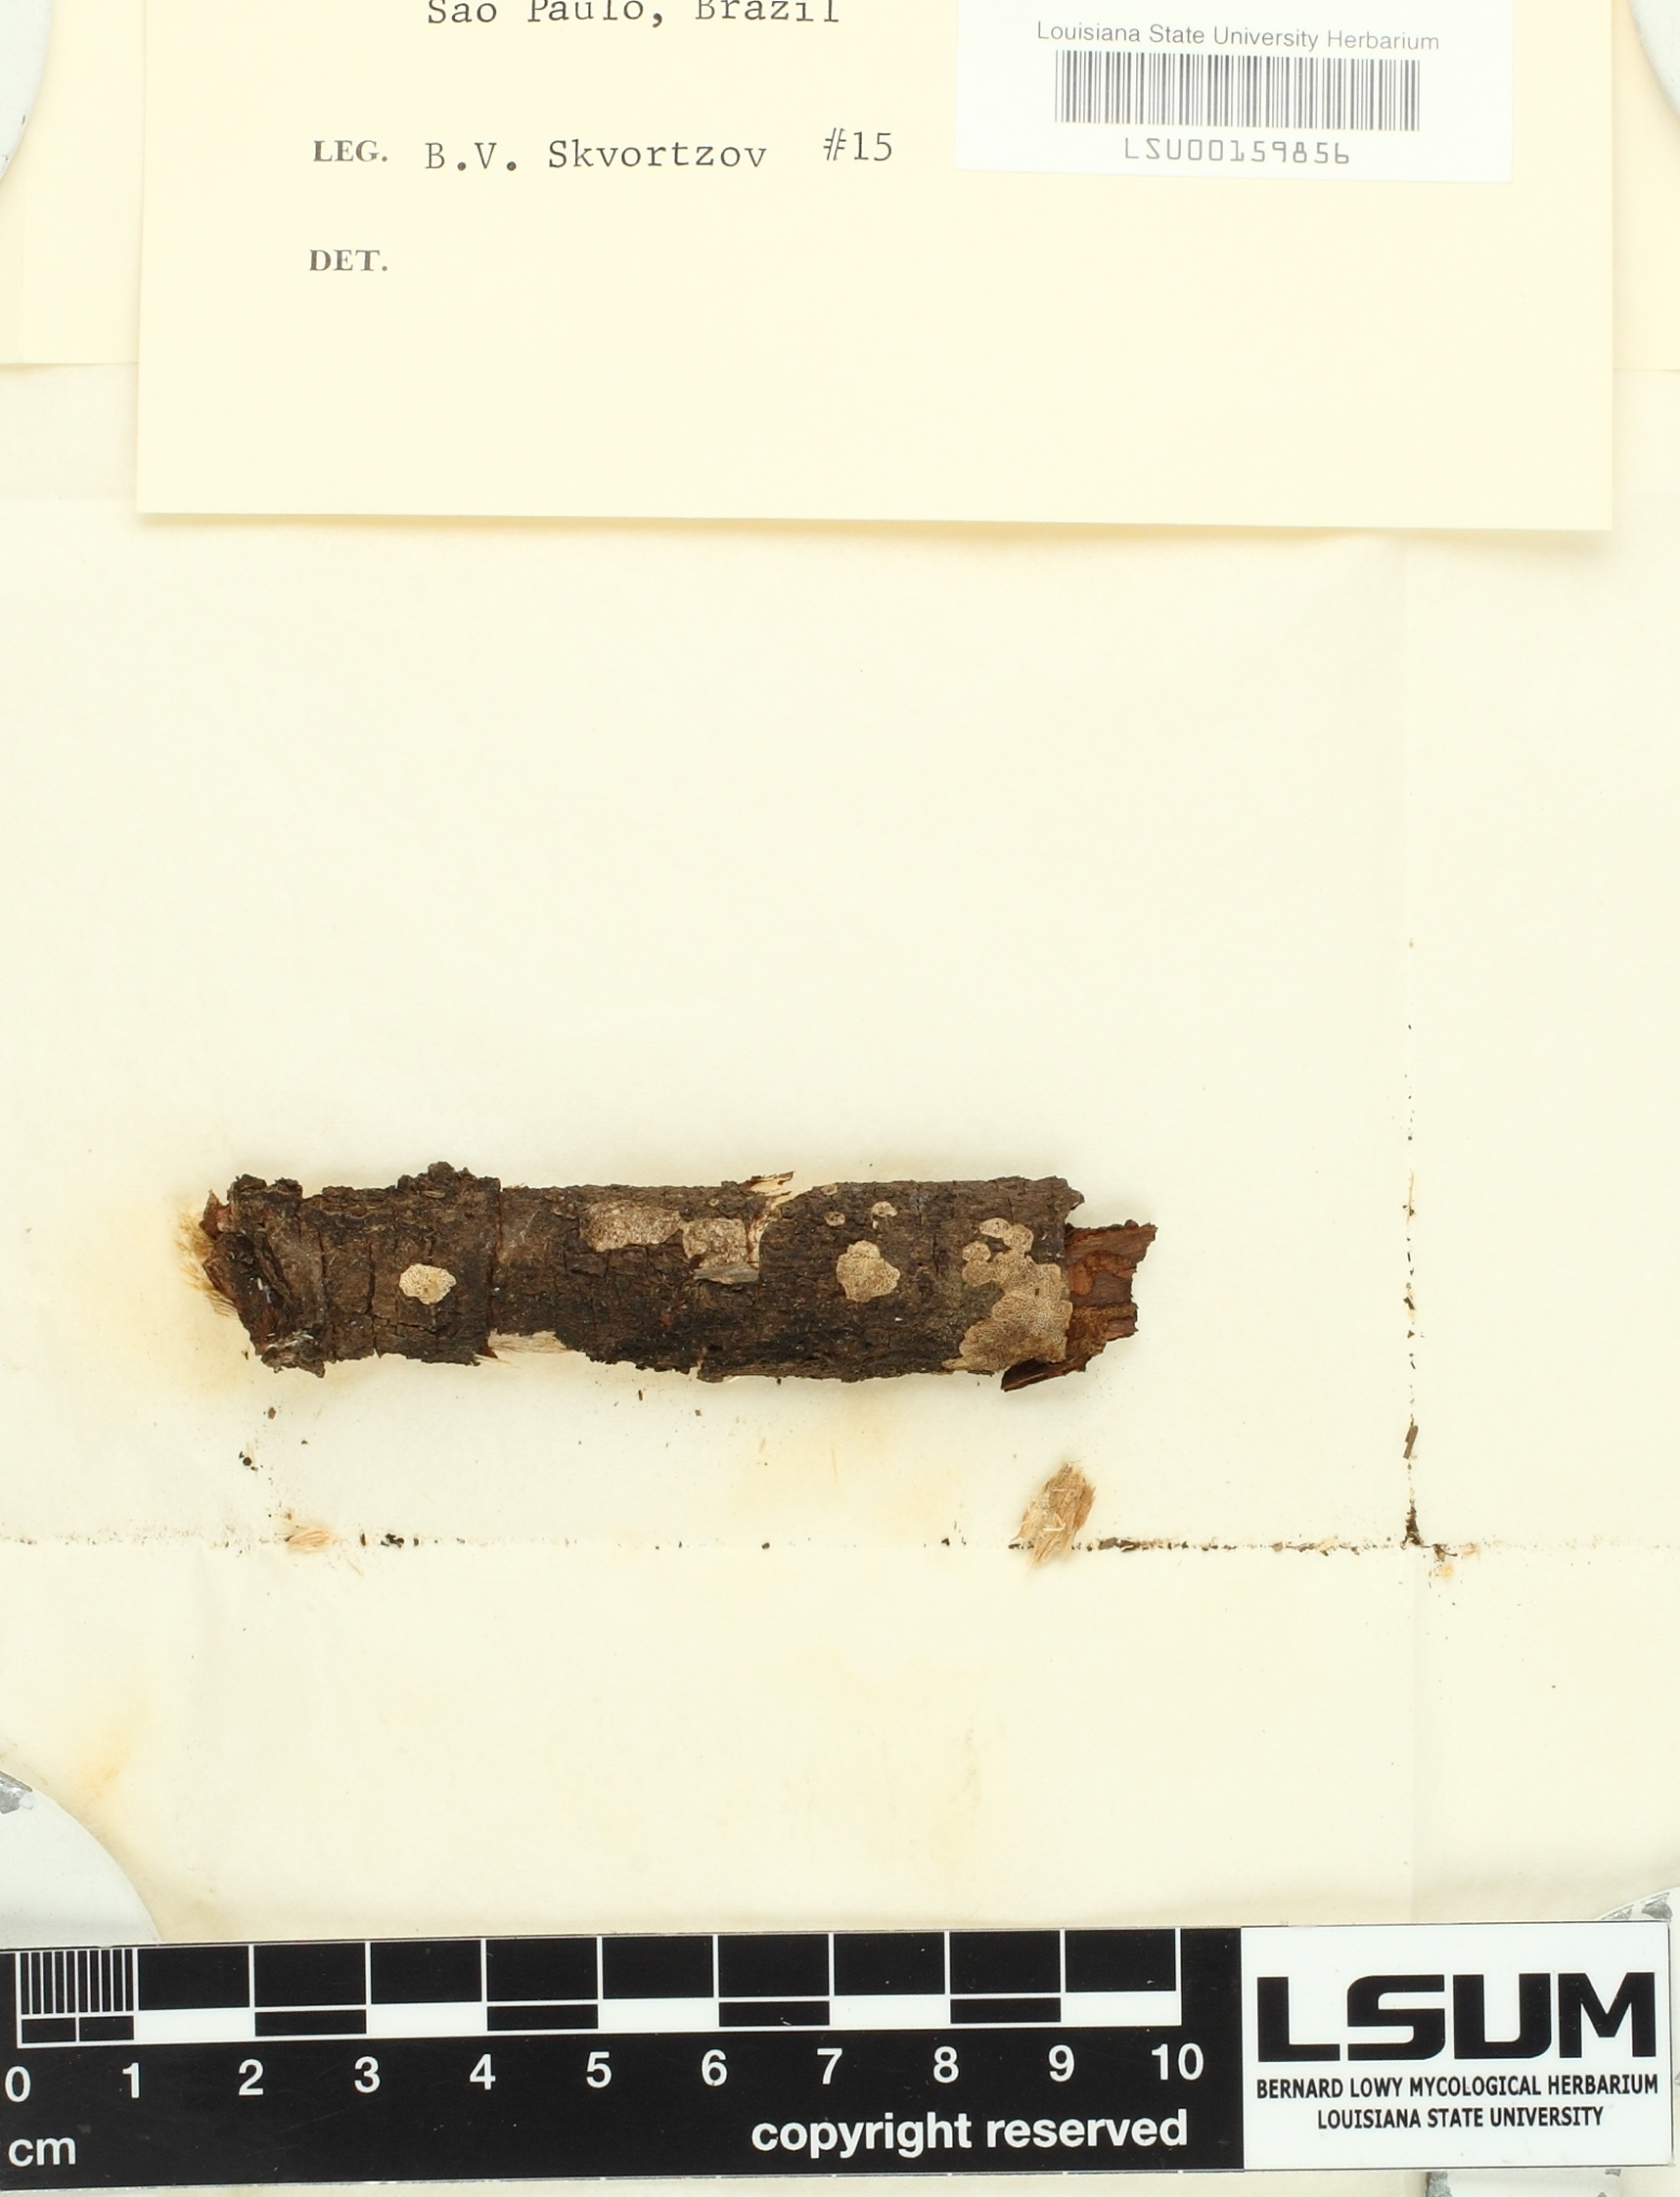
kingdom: Fungi
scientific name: Fungi
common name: Fungi
